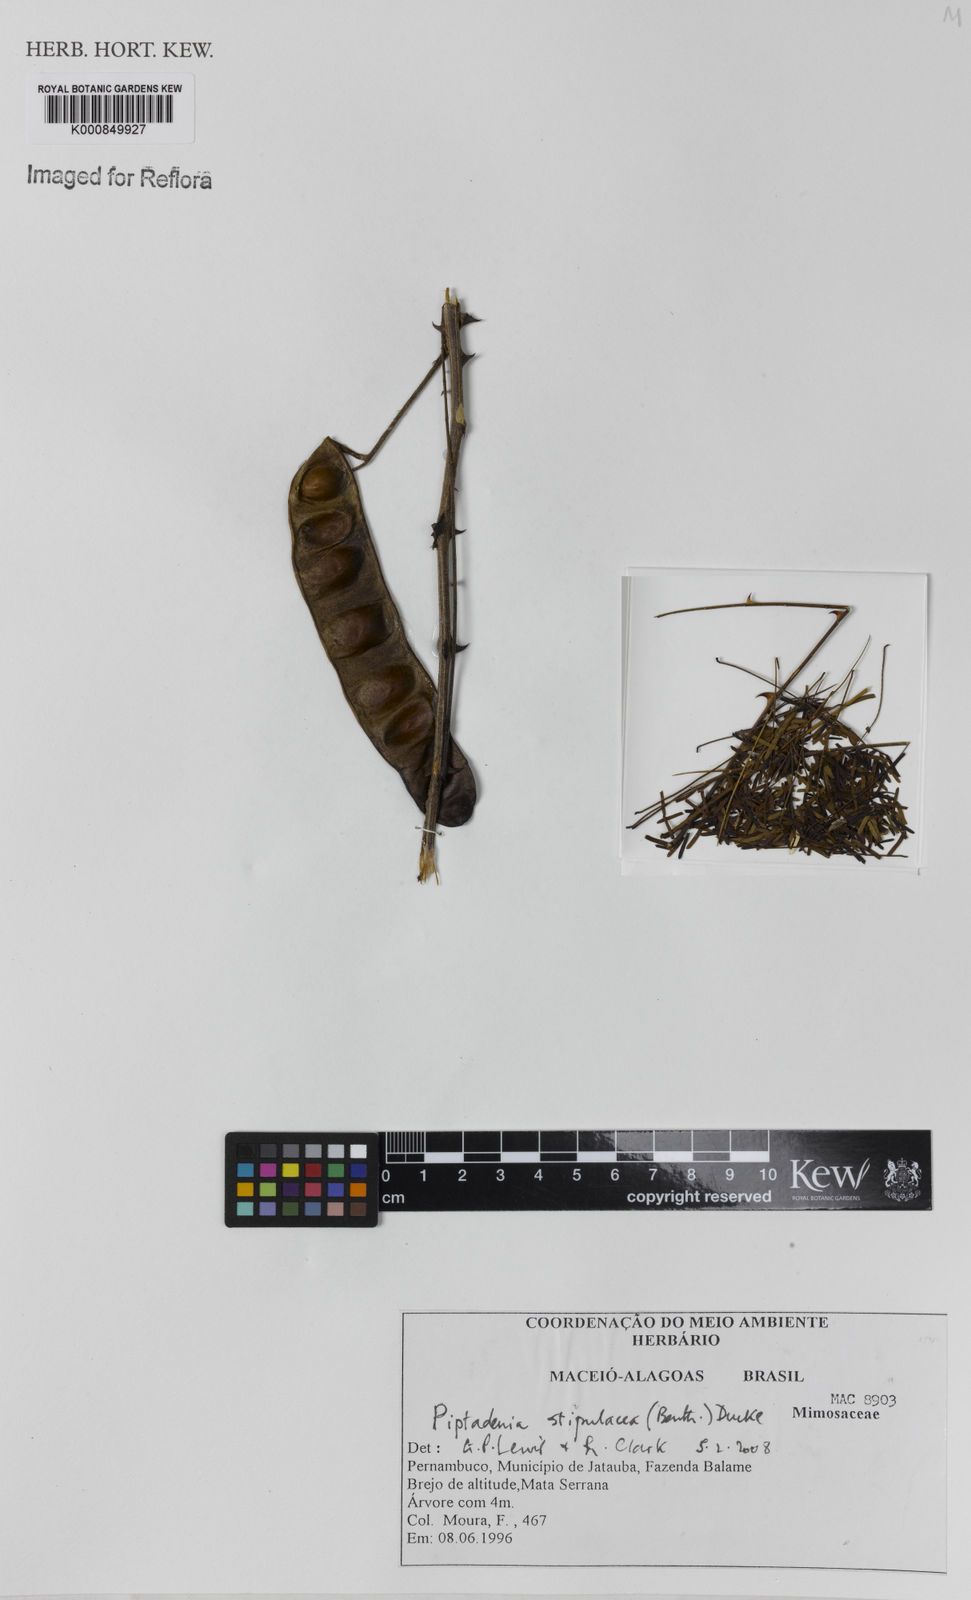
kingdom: Plantae
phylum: Tracheophyta
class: Magnoliopsida
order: Fabales
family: Fabaceae
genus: Piptadenia
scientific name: Piptadenia retusa
